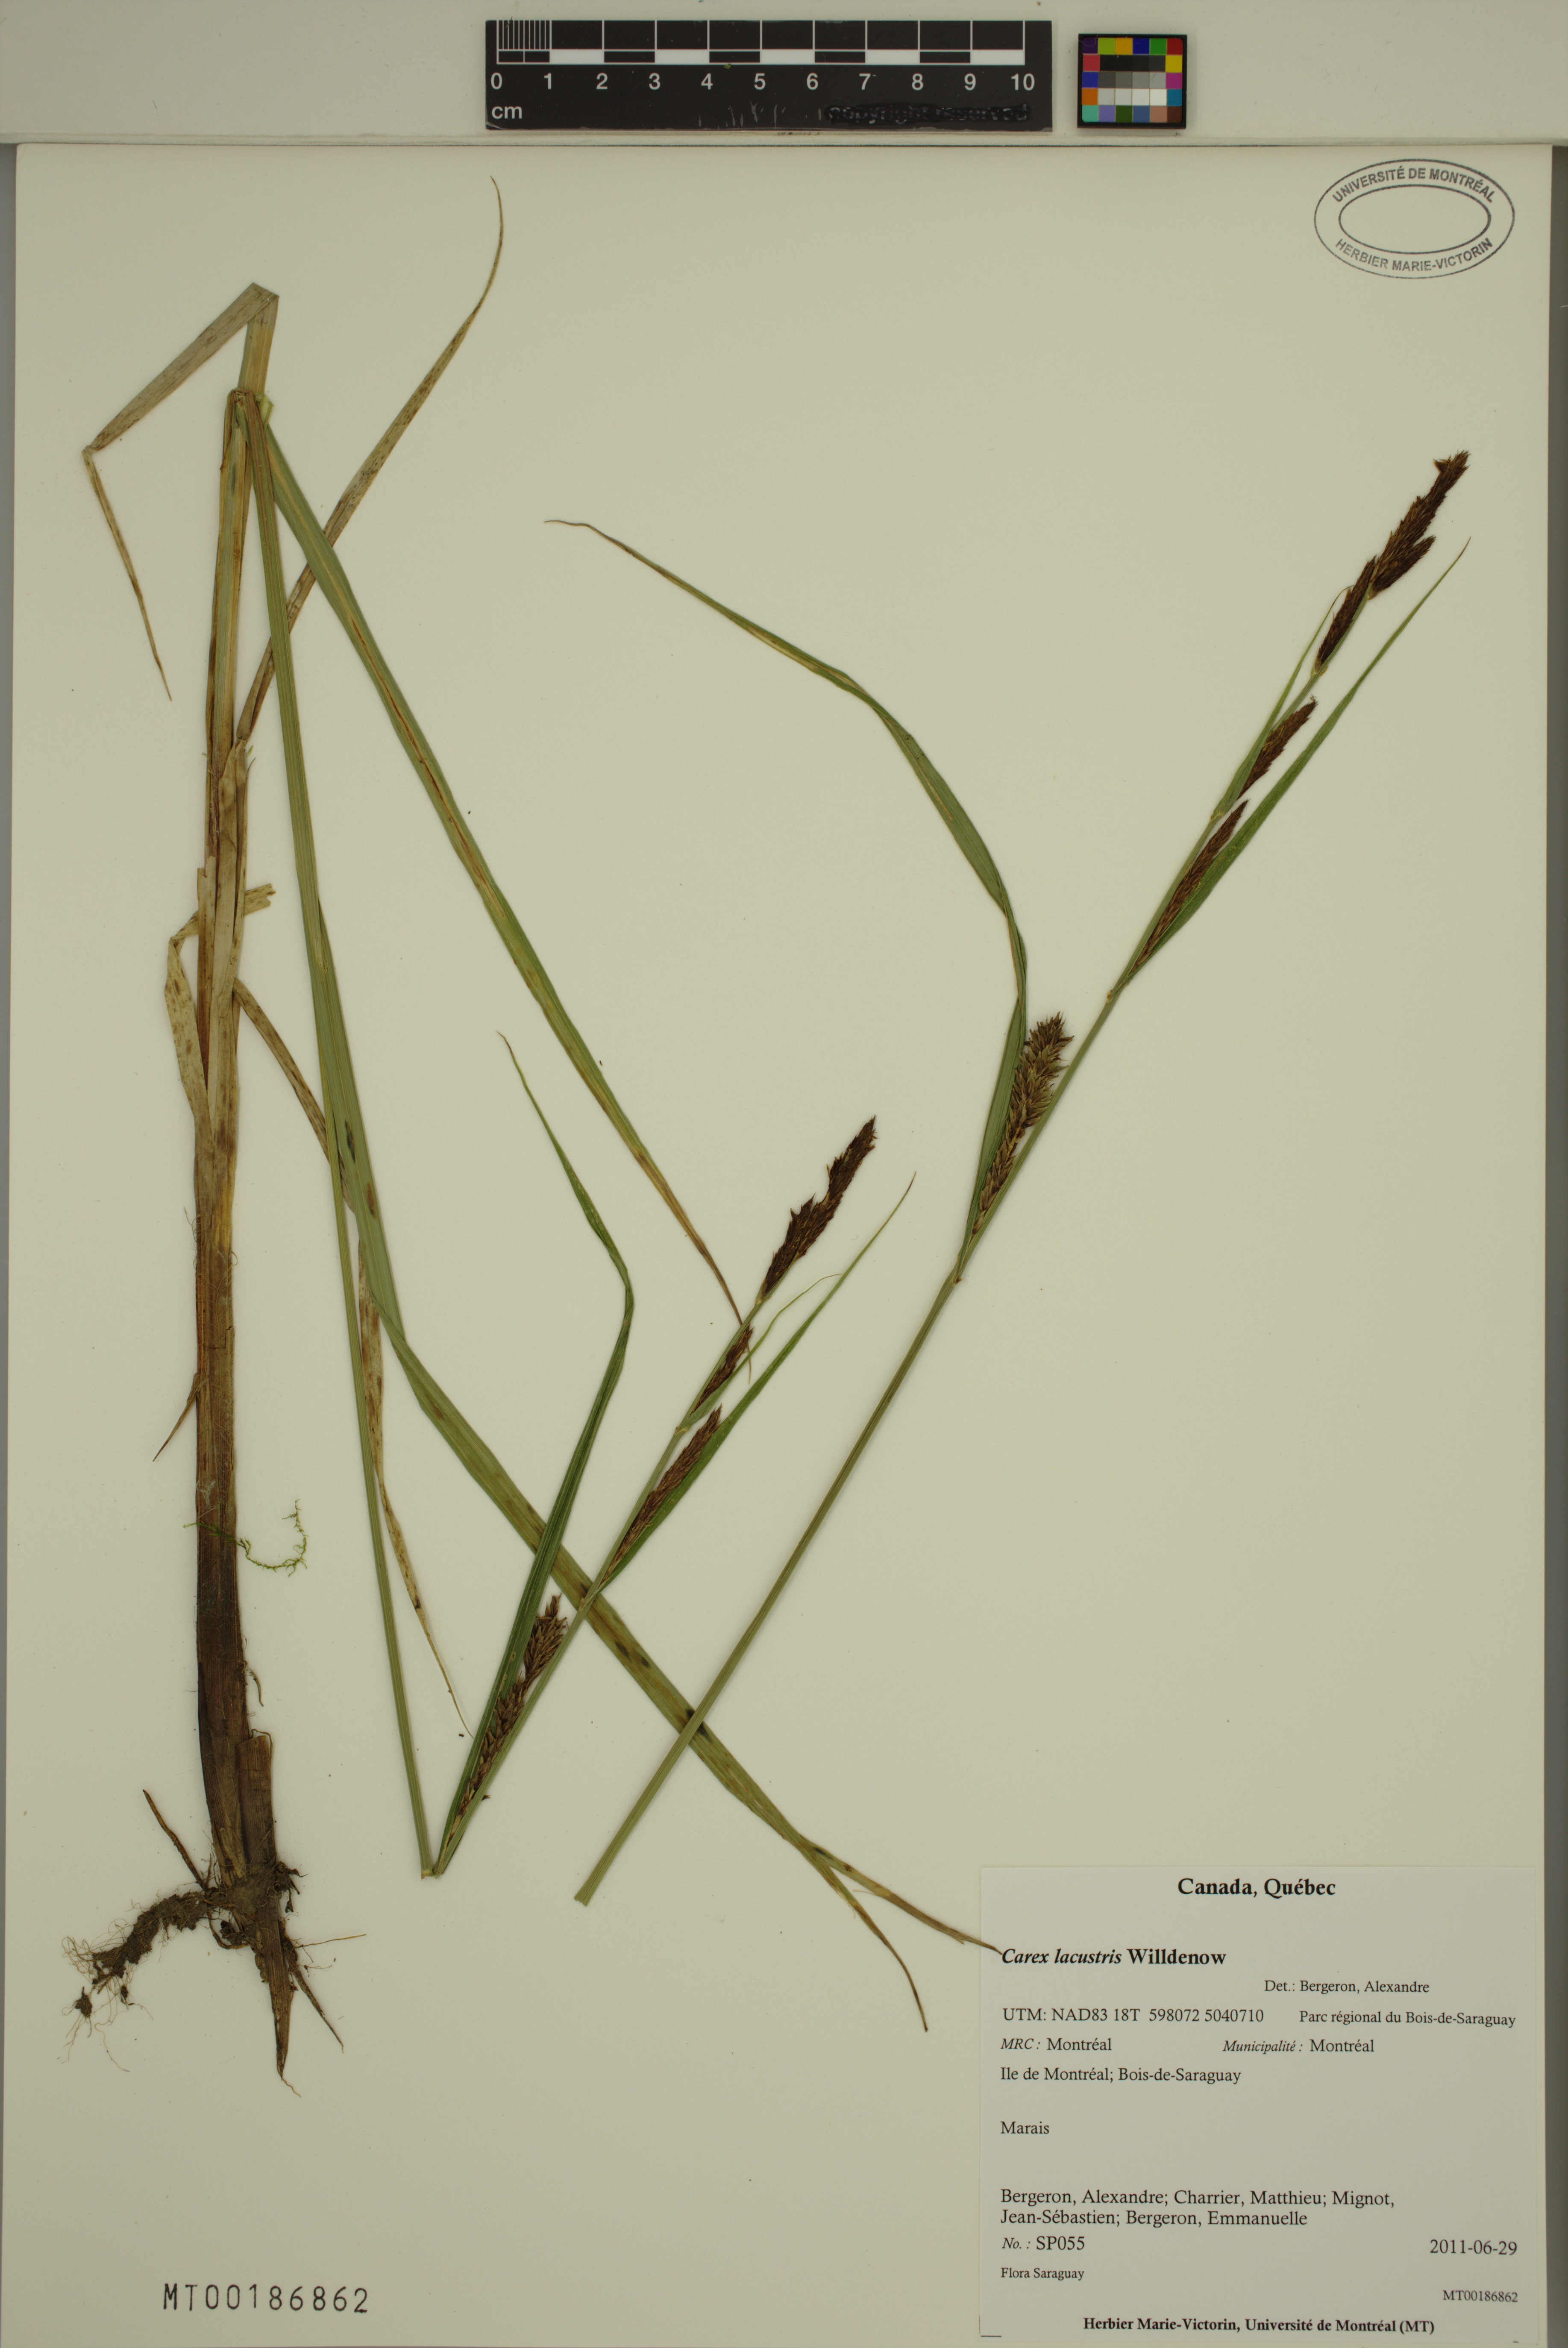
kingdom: Plantae
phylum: Tracheophyta
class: Liliopsida
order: Poales
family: Cyperaceae
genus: Carex
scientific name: Carex lacustris
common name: Common lake sedge
